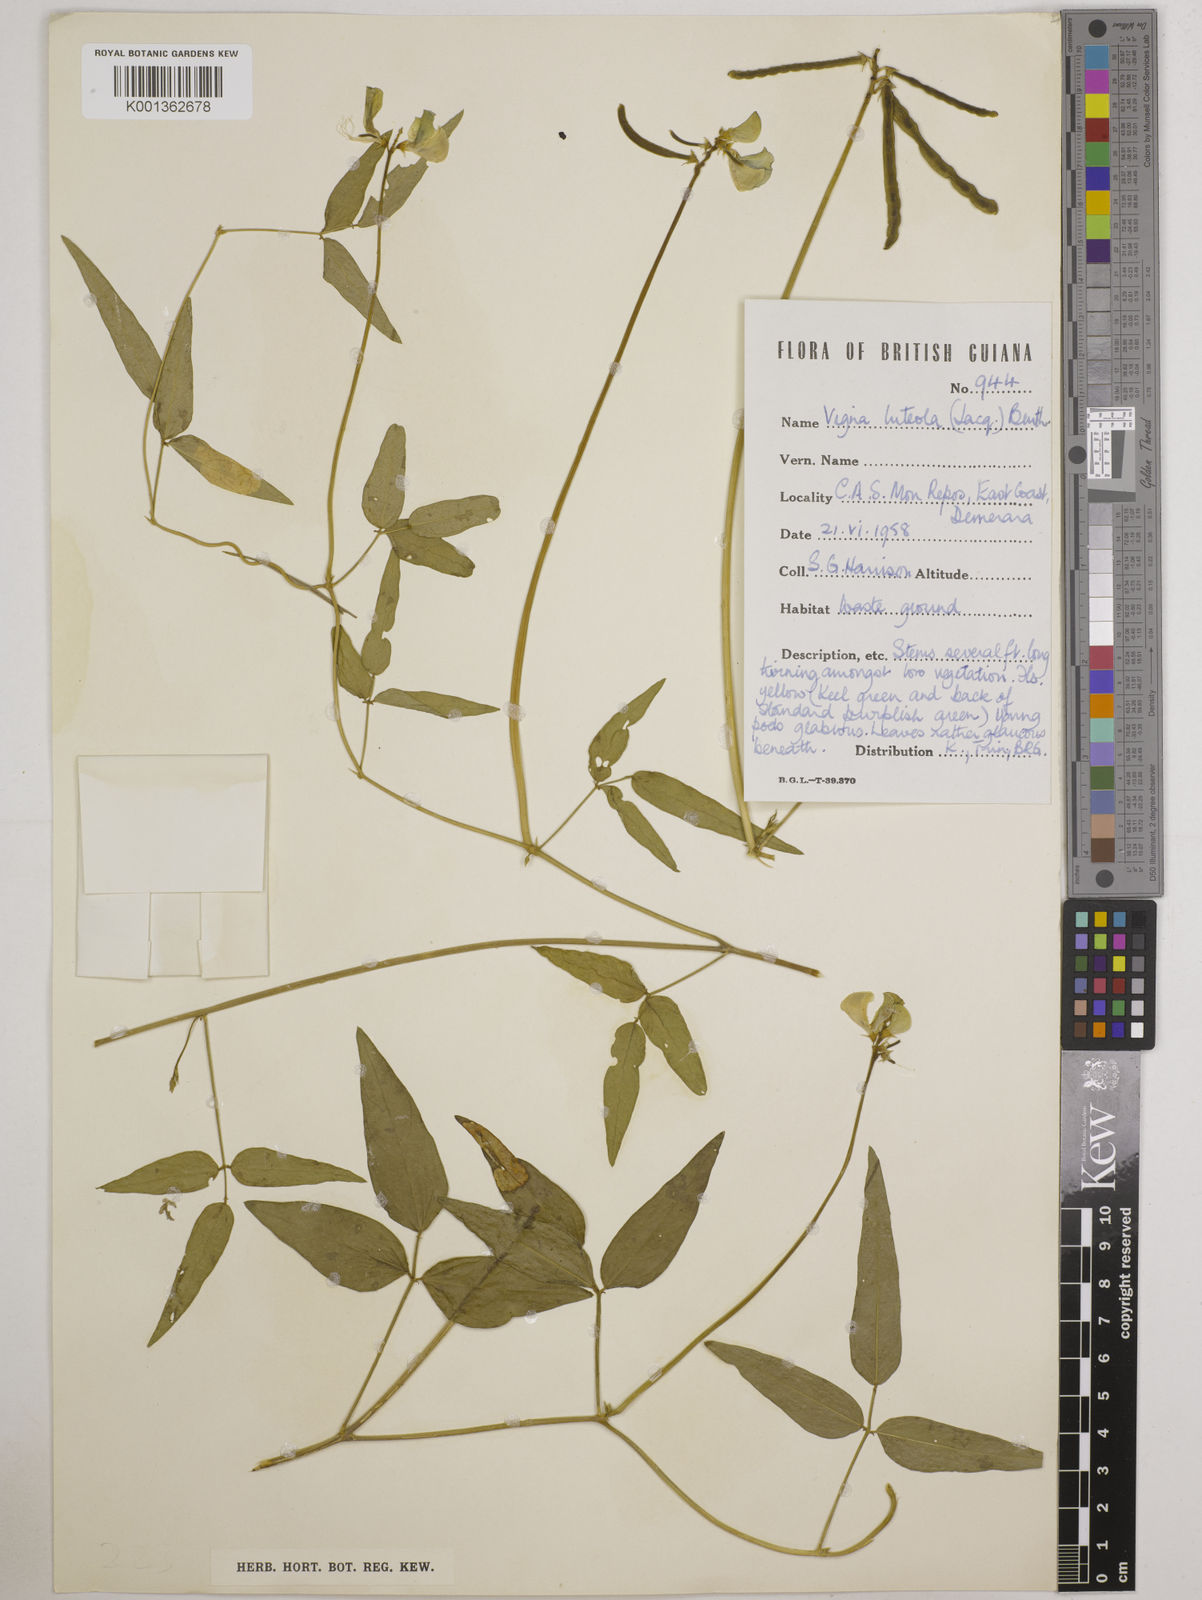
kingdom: Plantae
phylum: Tracheophyta
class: Magnoliopsida
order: Fabales
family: Fabaceae
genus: Vigna
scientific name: Vigna luteola
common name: Hairypod cowpea
